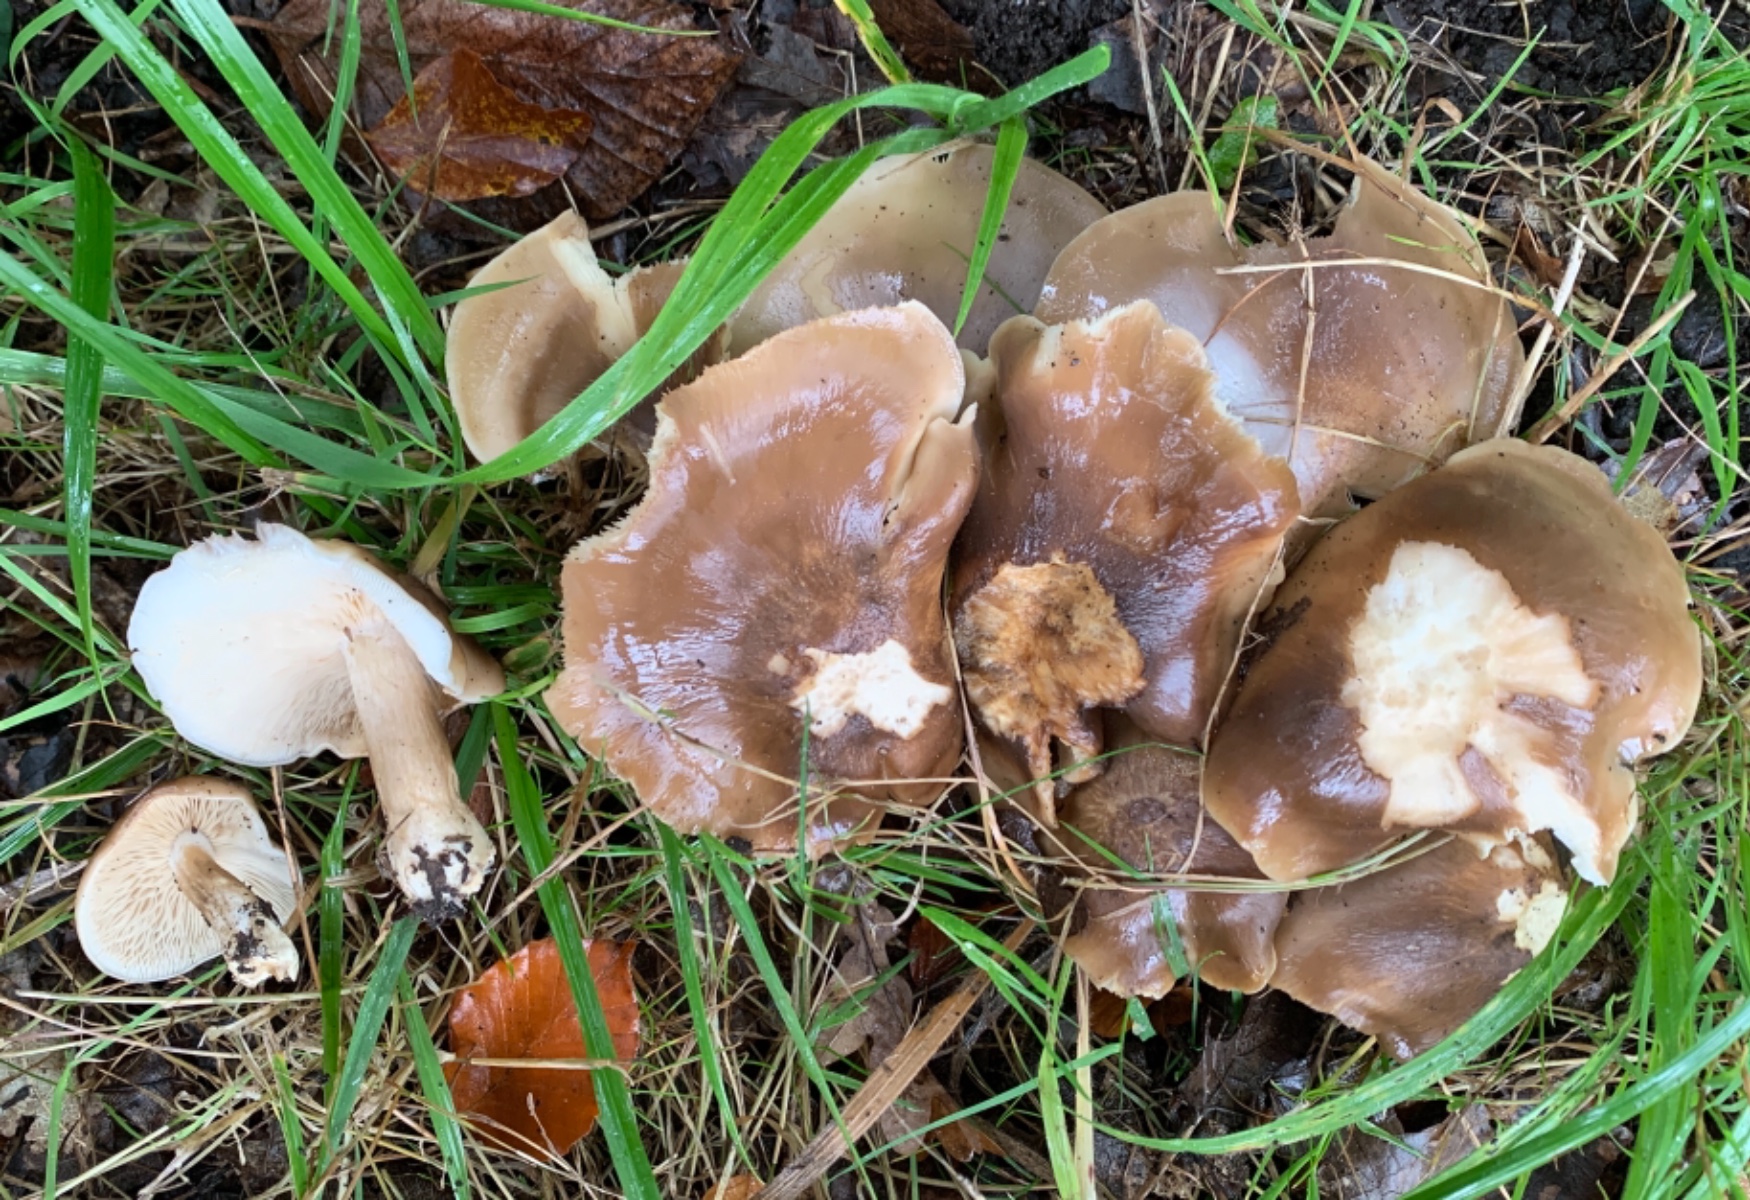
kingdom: Fungi
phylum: Basidiomycota
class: Agaricomycetes
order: Agaricales
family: Lyophyllaceae
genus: Lyophyllum
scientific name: Lyophyllum decastes
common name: røggrå gråblad
